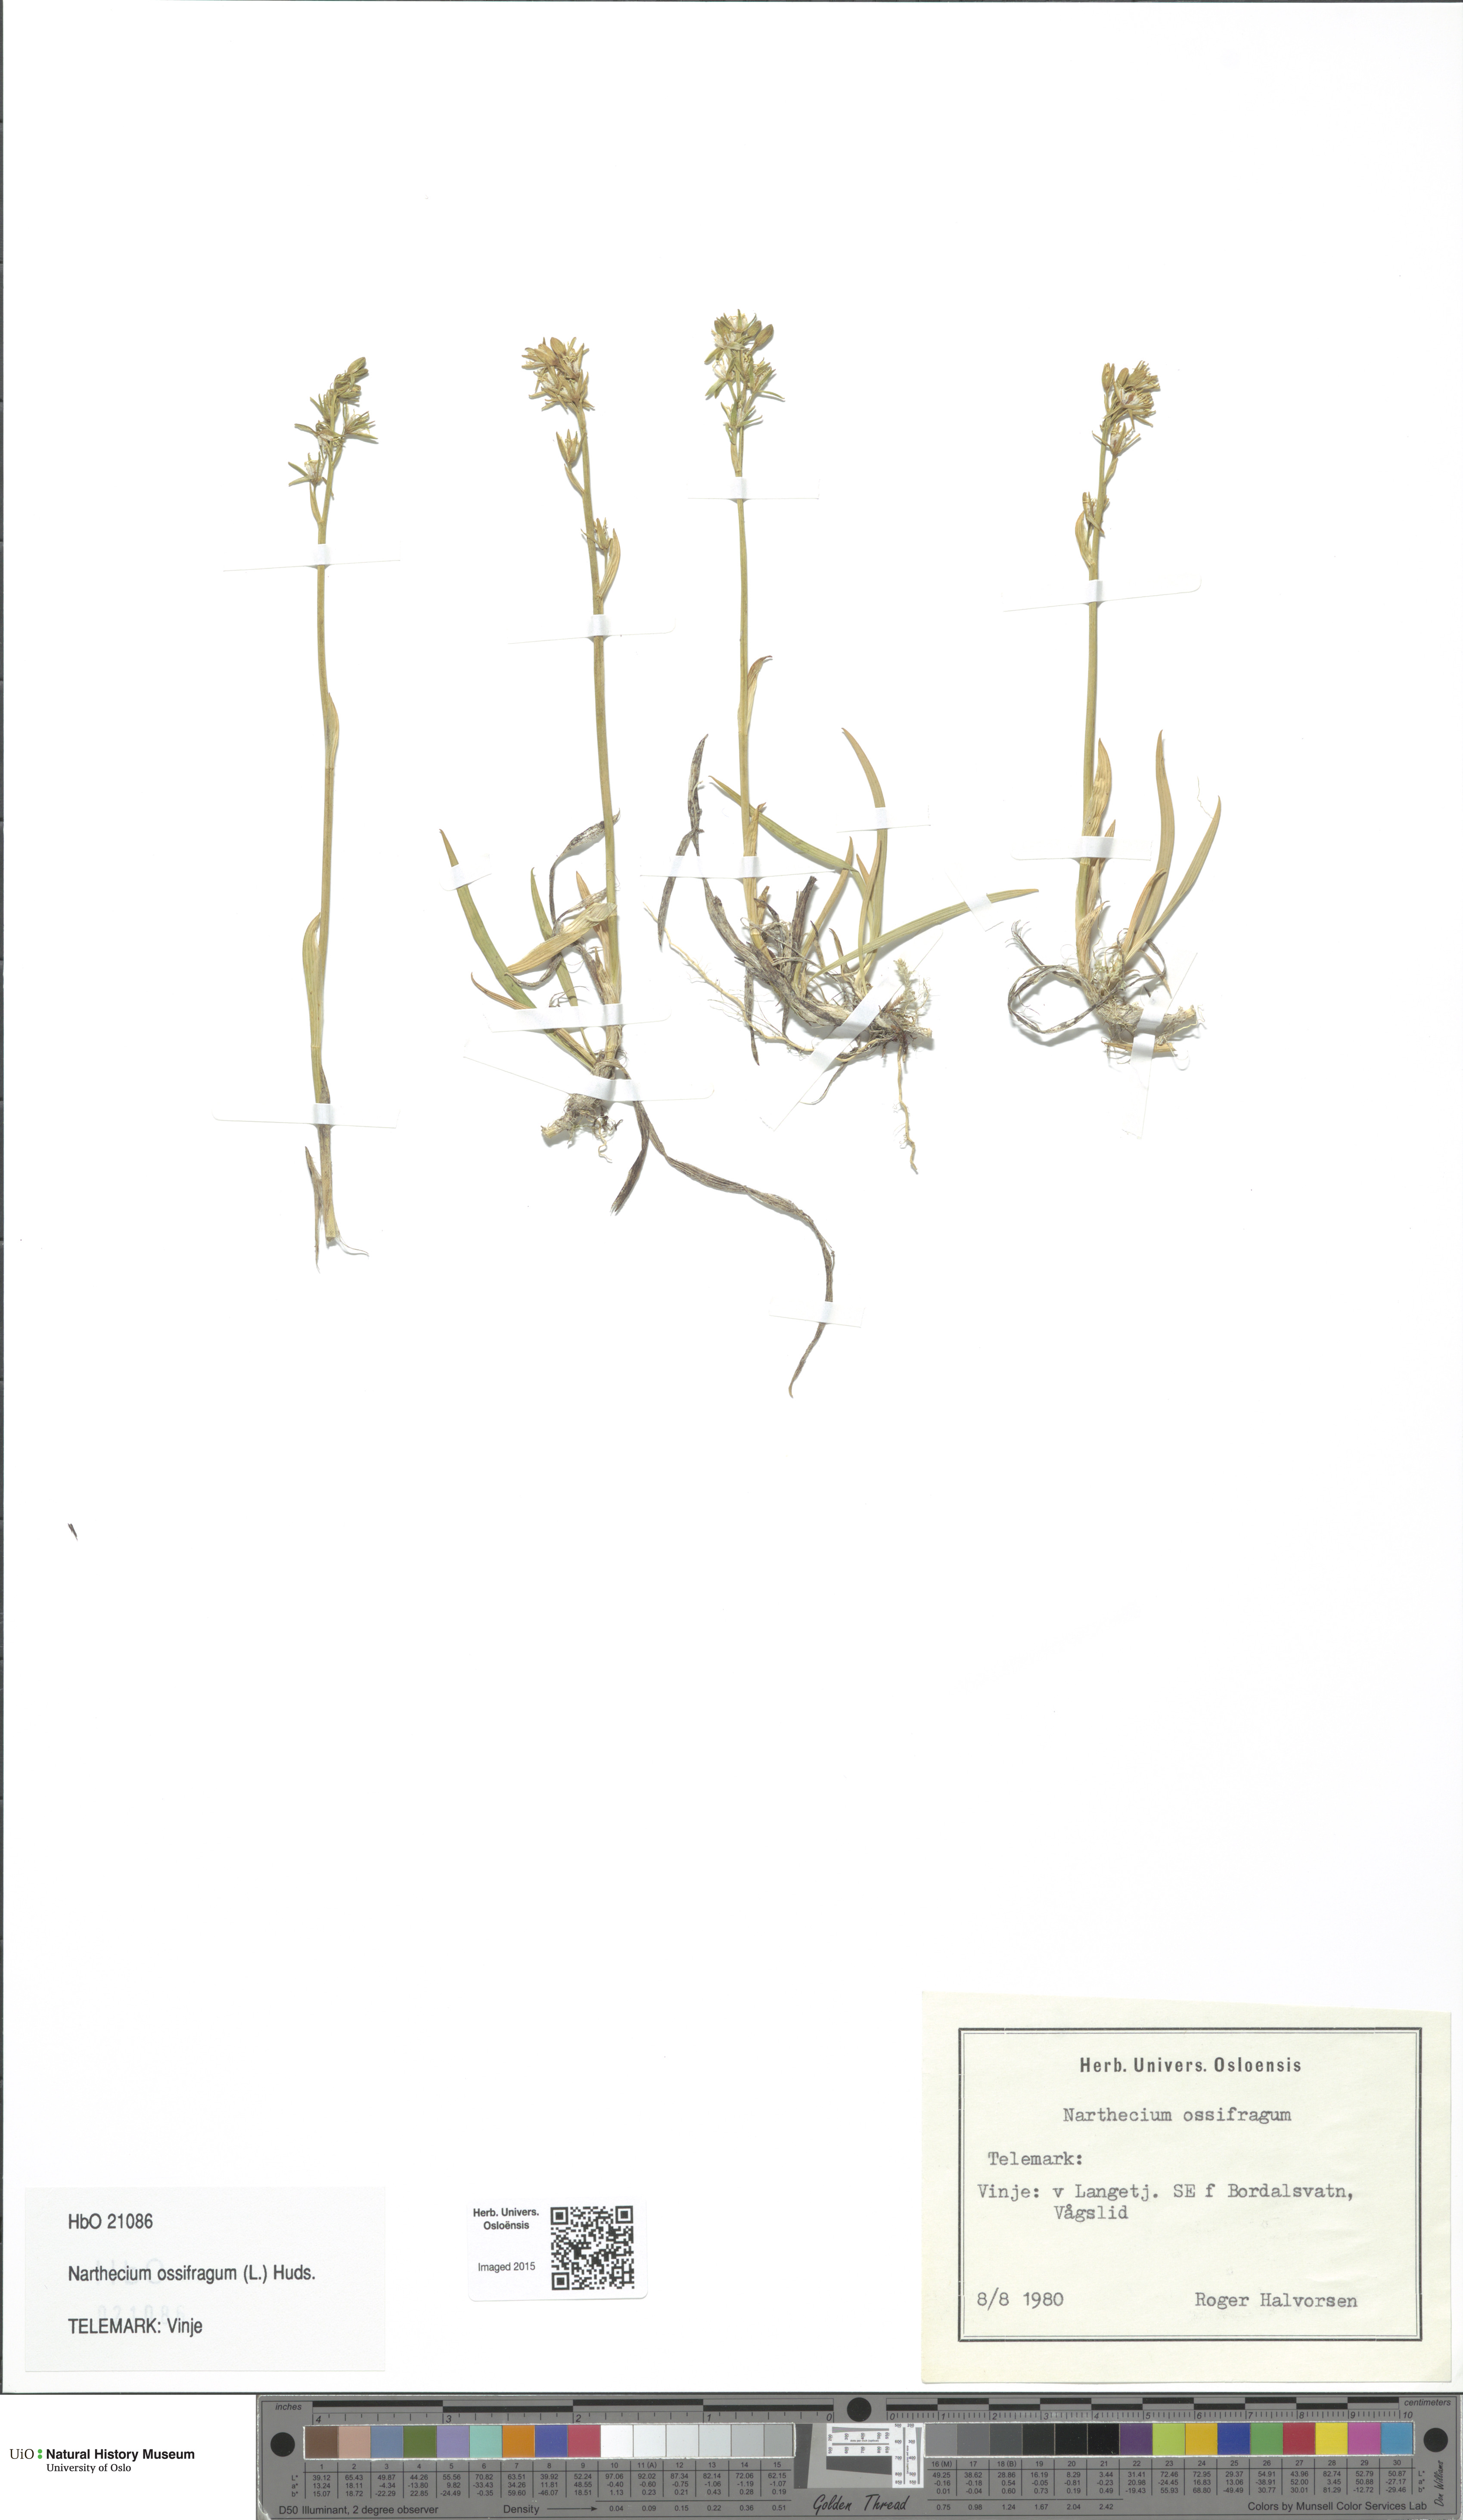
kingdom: Plantae
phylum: Tracheophyta
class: Liliopsida
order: Dioscoreales
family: Nartheciaceae
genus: Narthecium
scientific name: Narthecium ossifragum
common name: Bog asphodel
